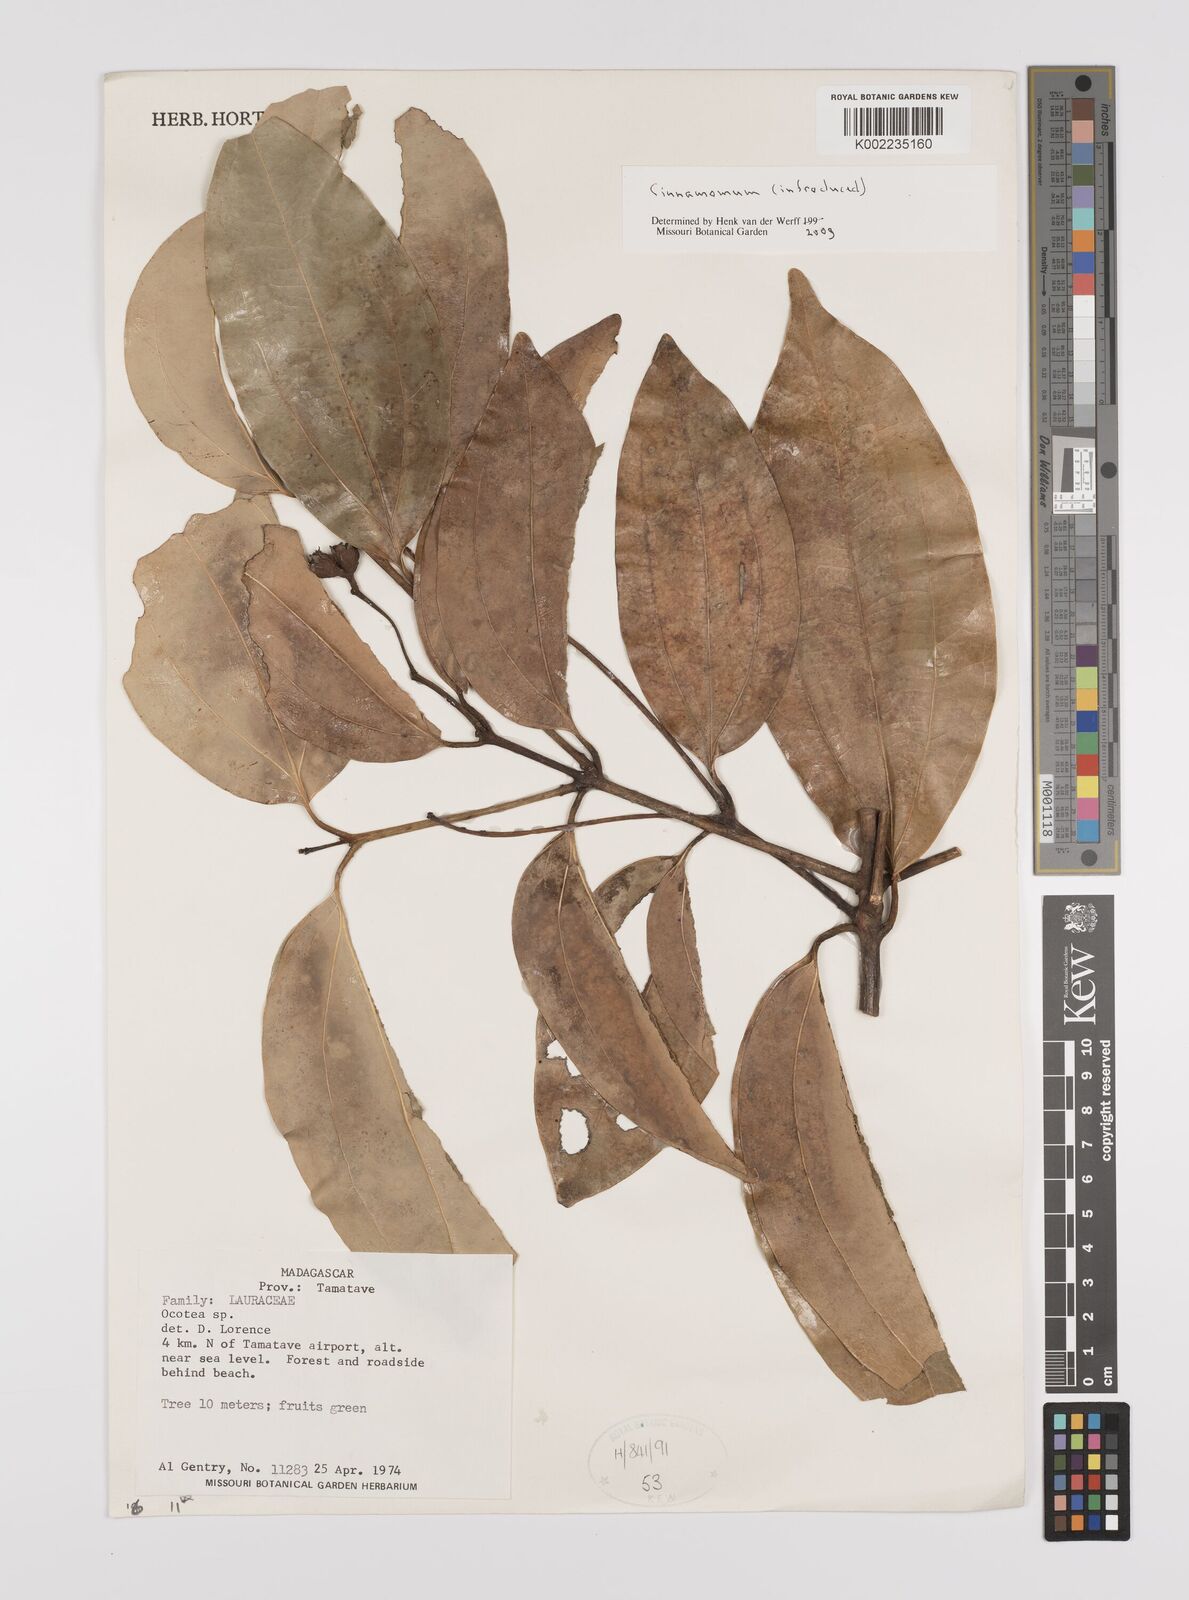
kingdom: Plantae
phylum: Tracheophyta
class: Magnoliopsida
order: Laurales
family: Lauraceae
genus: Cinnamomum
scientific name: Cinnamomum
